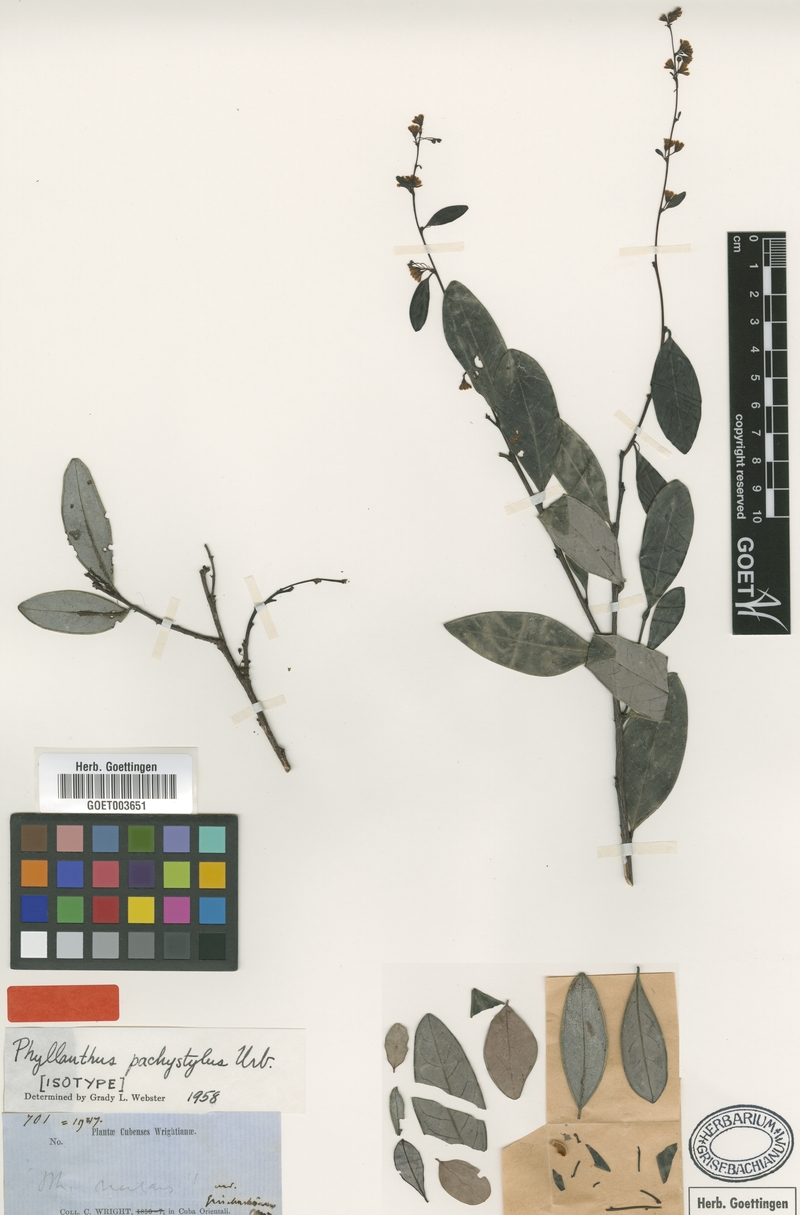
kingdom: Plantae
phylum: Tracheophyta
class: Magnoliopsida
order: Malpighiales
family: Phyllanthaceae
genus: Phyllanthus
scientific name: Phyllanthus pachystylus
